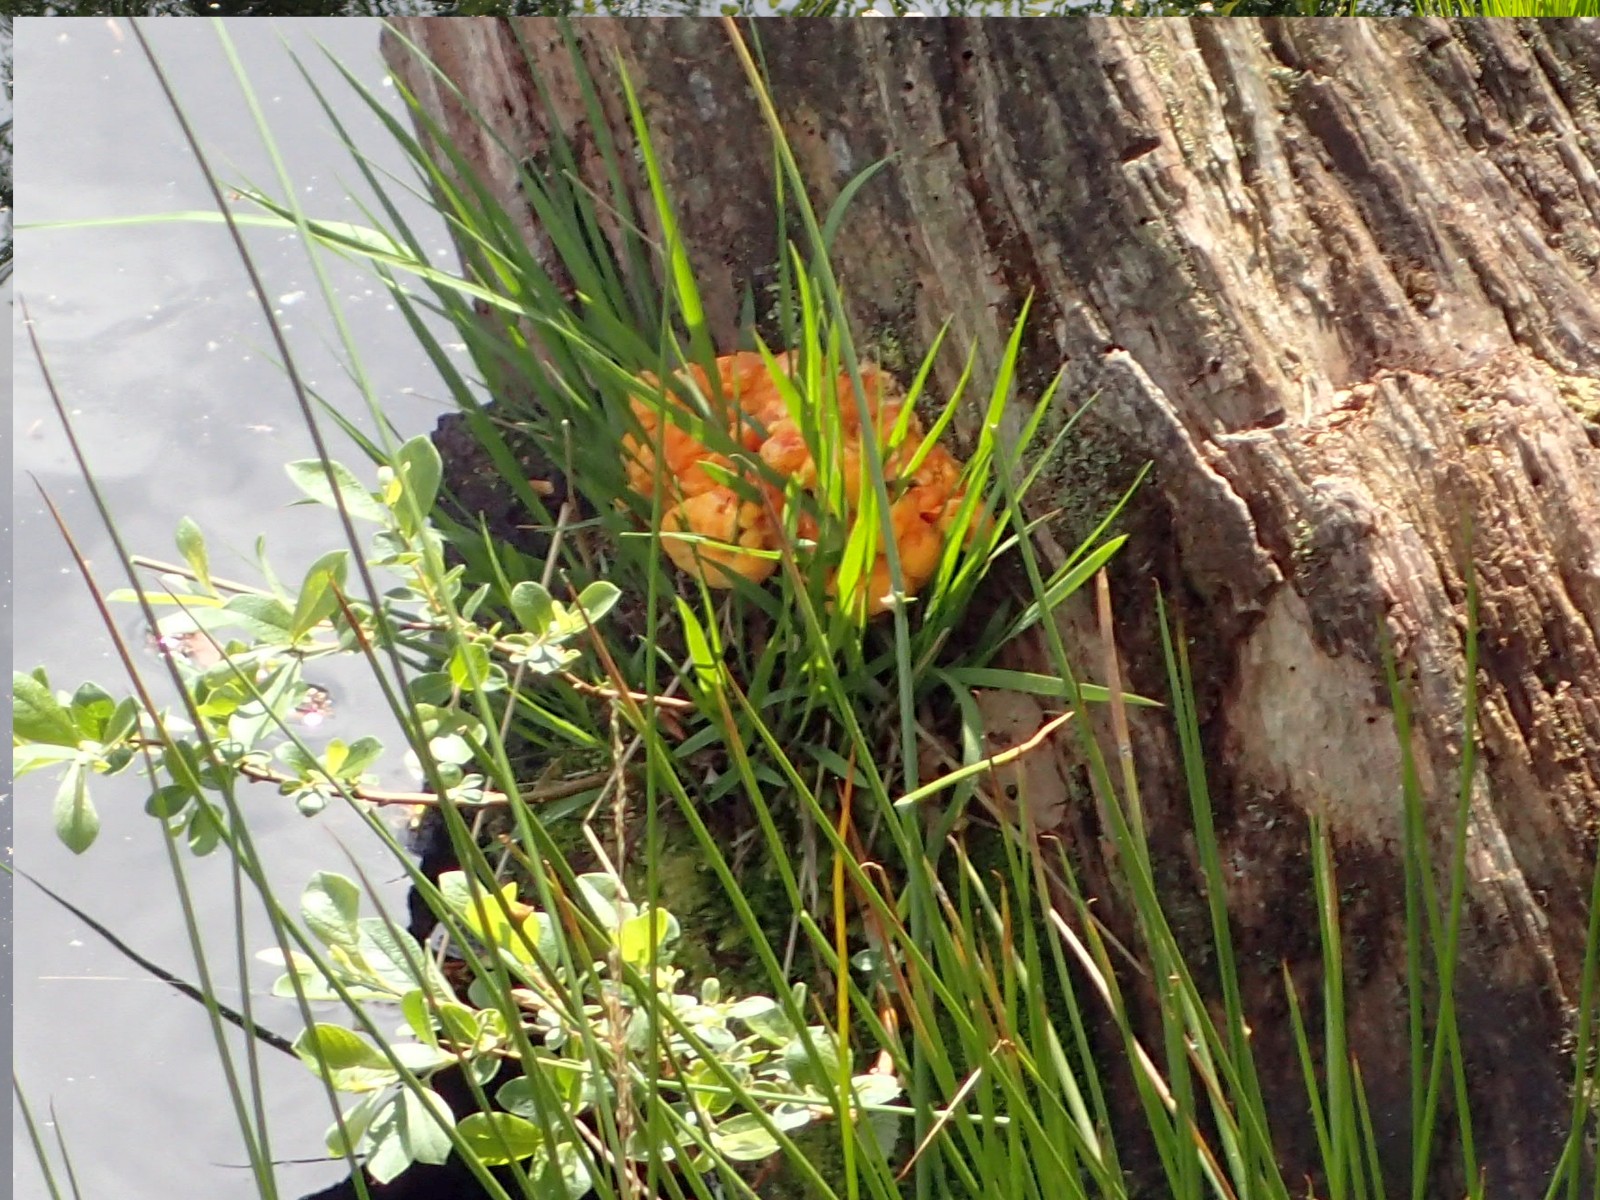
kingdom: Fungi
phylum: Basidiomycota
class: Agaricomycetes
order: Polyporales
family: Laetiporaceae
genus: Laetiporus
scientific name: Laetiporus sulphureus
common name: svovlporesvamp
